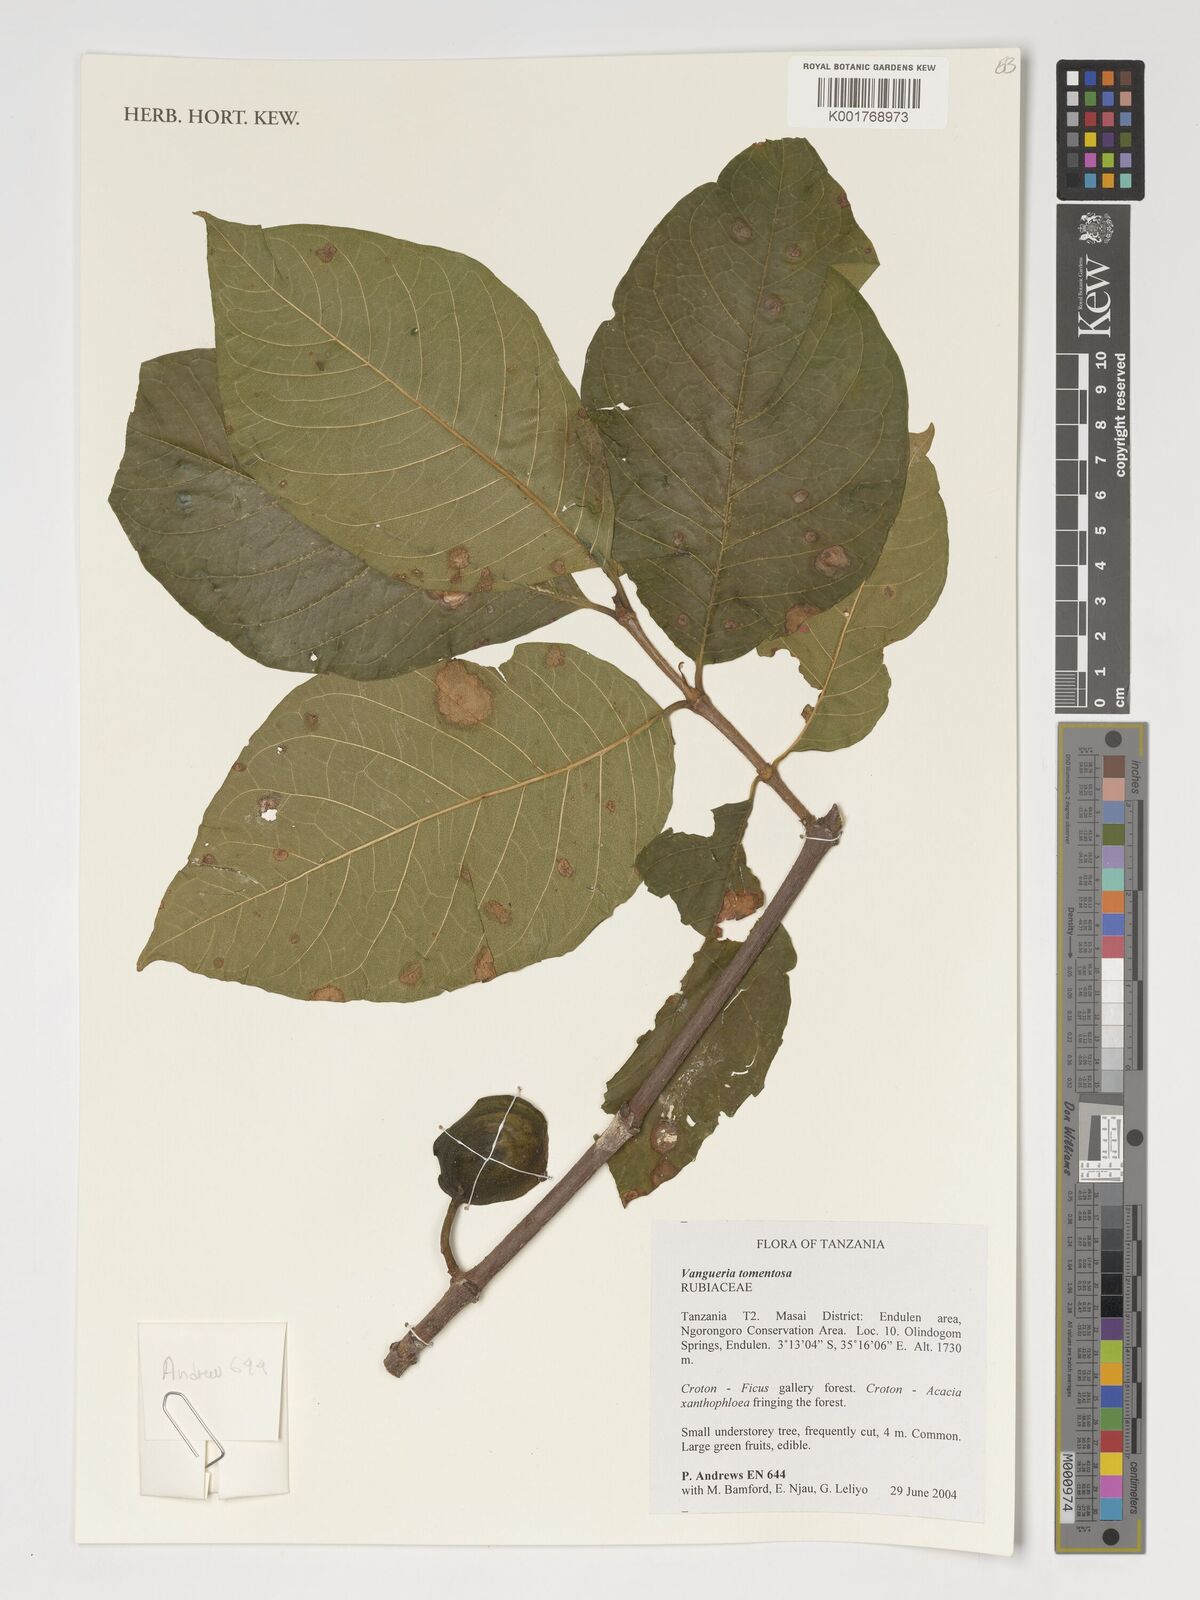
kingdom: Plantae
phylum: Tracheophyta
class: Magnoliopsida
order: Gentianales
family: Rubiaceae
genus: Vangueria
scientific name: Vangueria schumanniana
